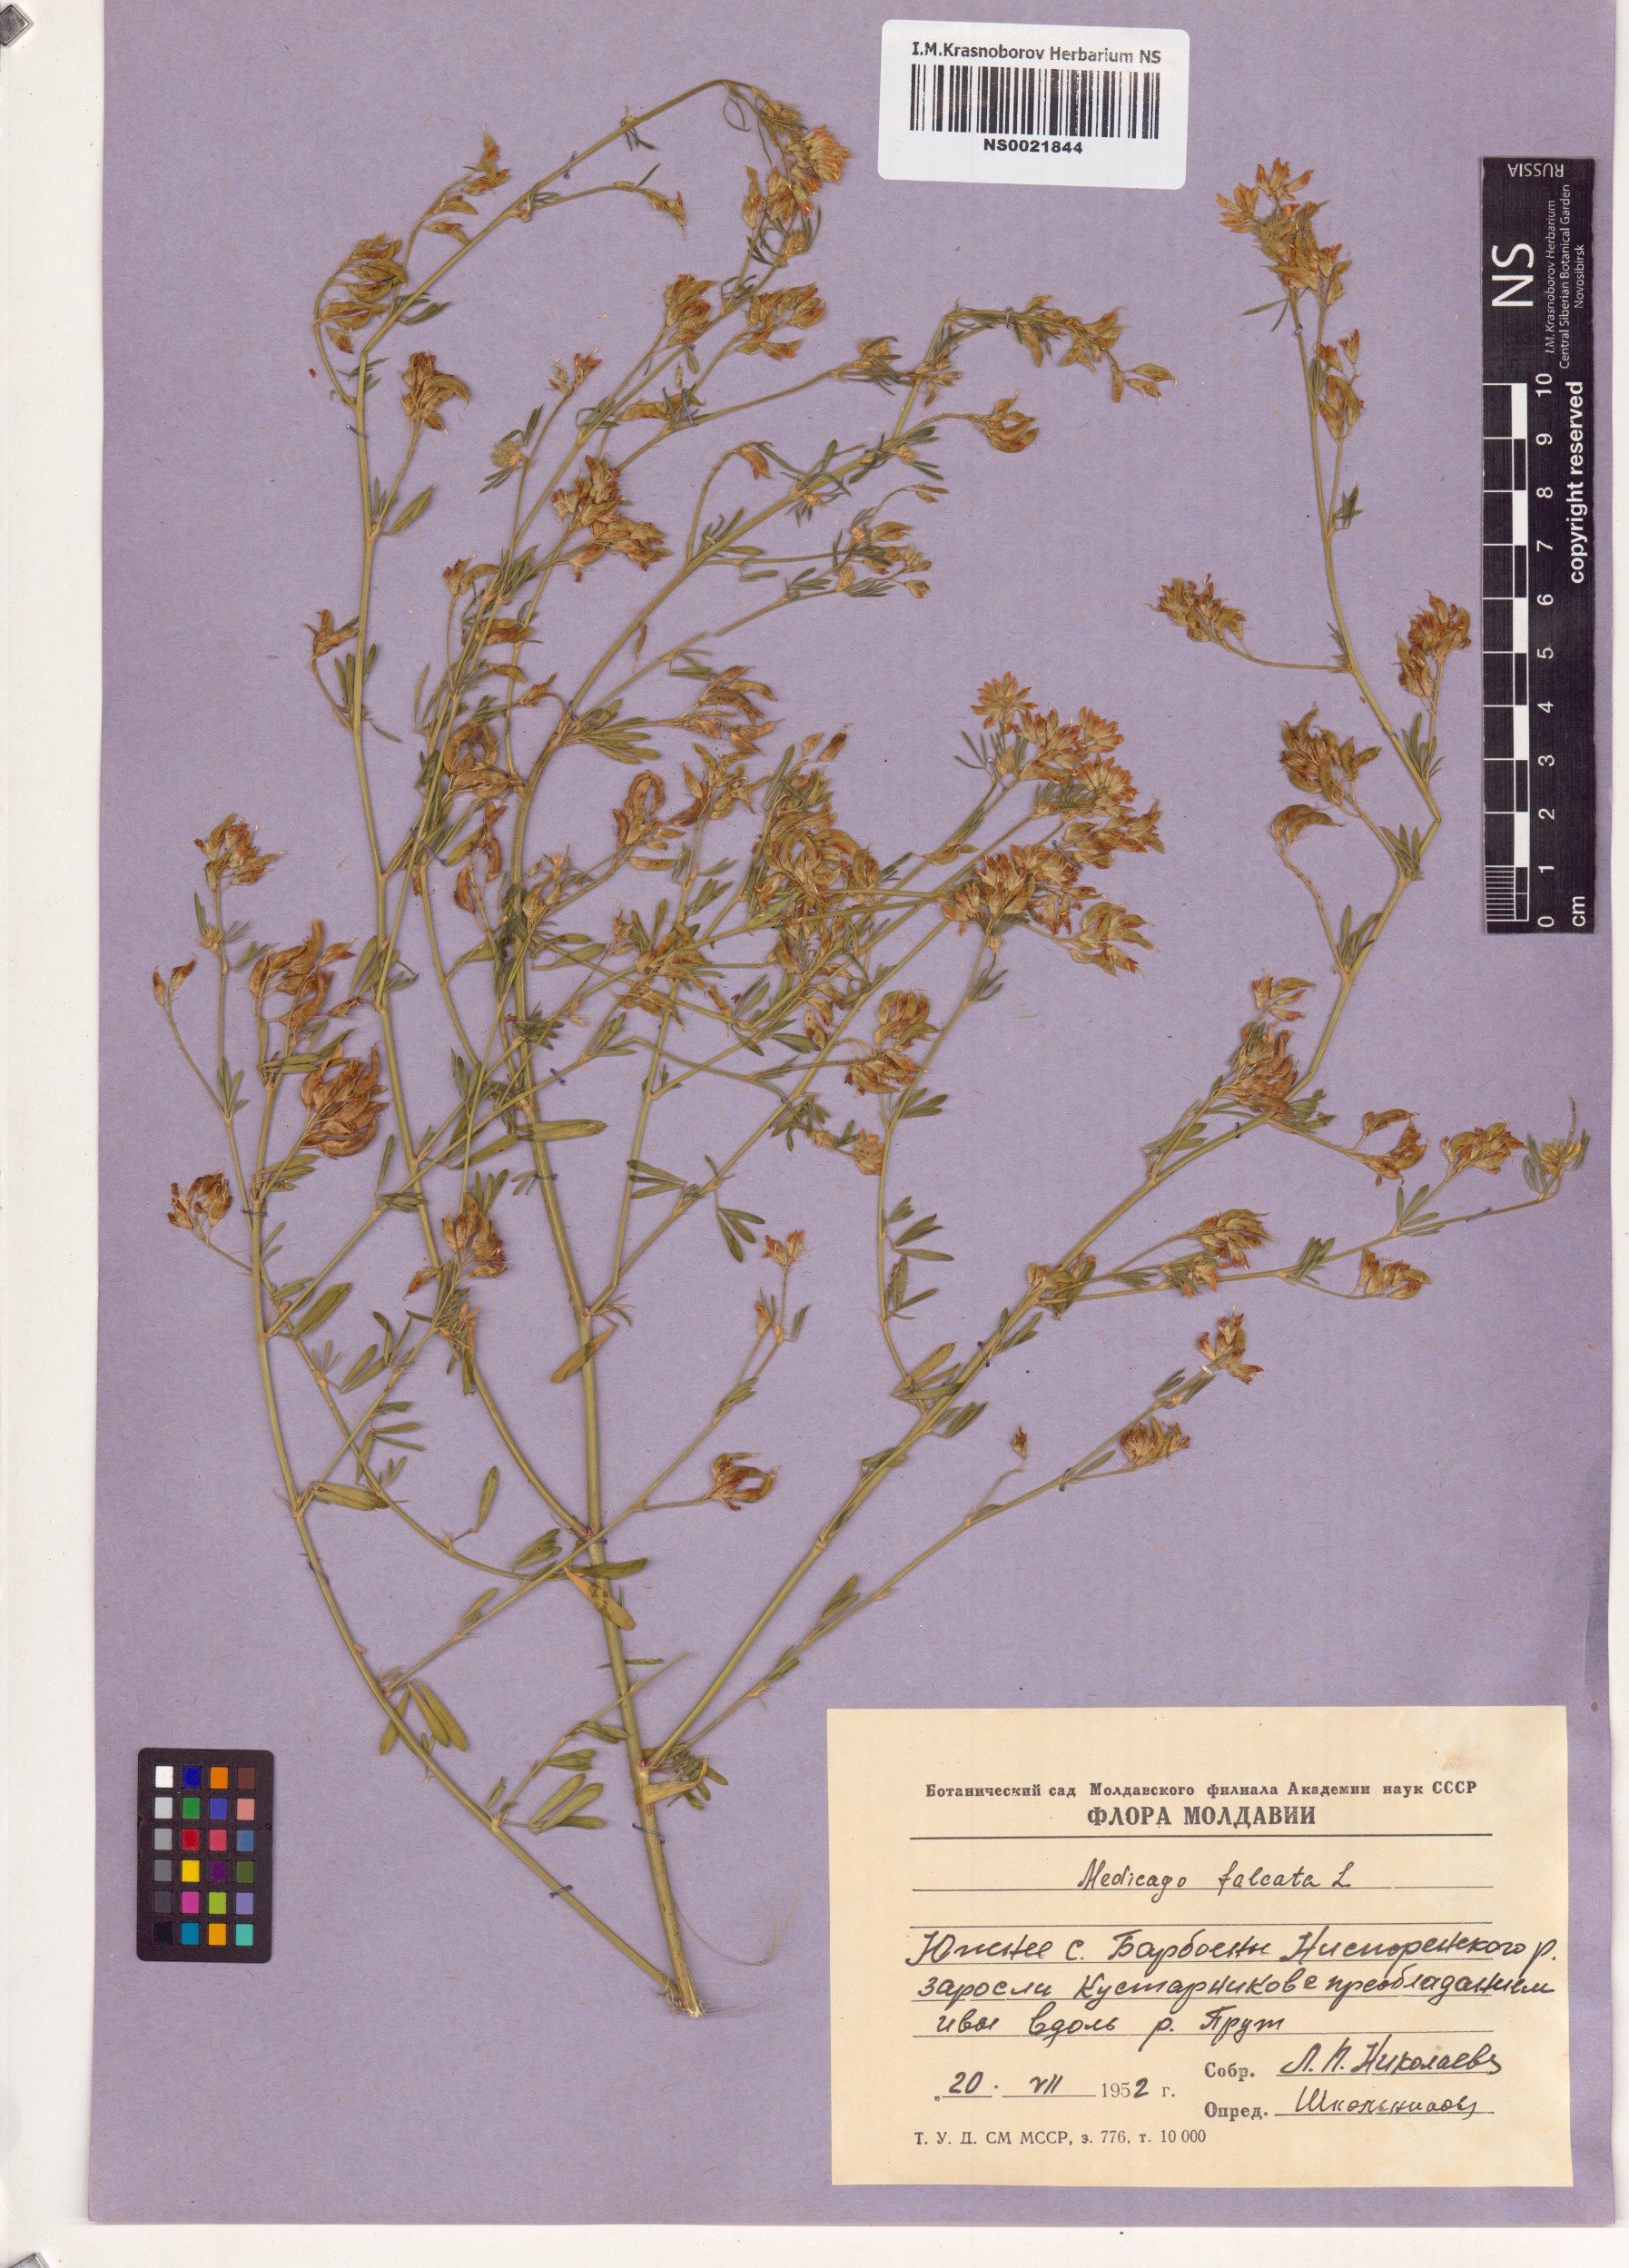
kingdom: Plantae
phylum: Tracheophyta
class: Magnoliopsida
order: Fabales
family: Fabaceae
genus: Medicago
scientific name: Medicago falcata
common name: Sickle medick
